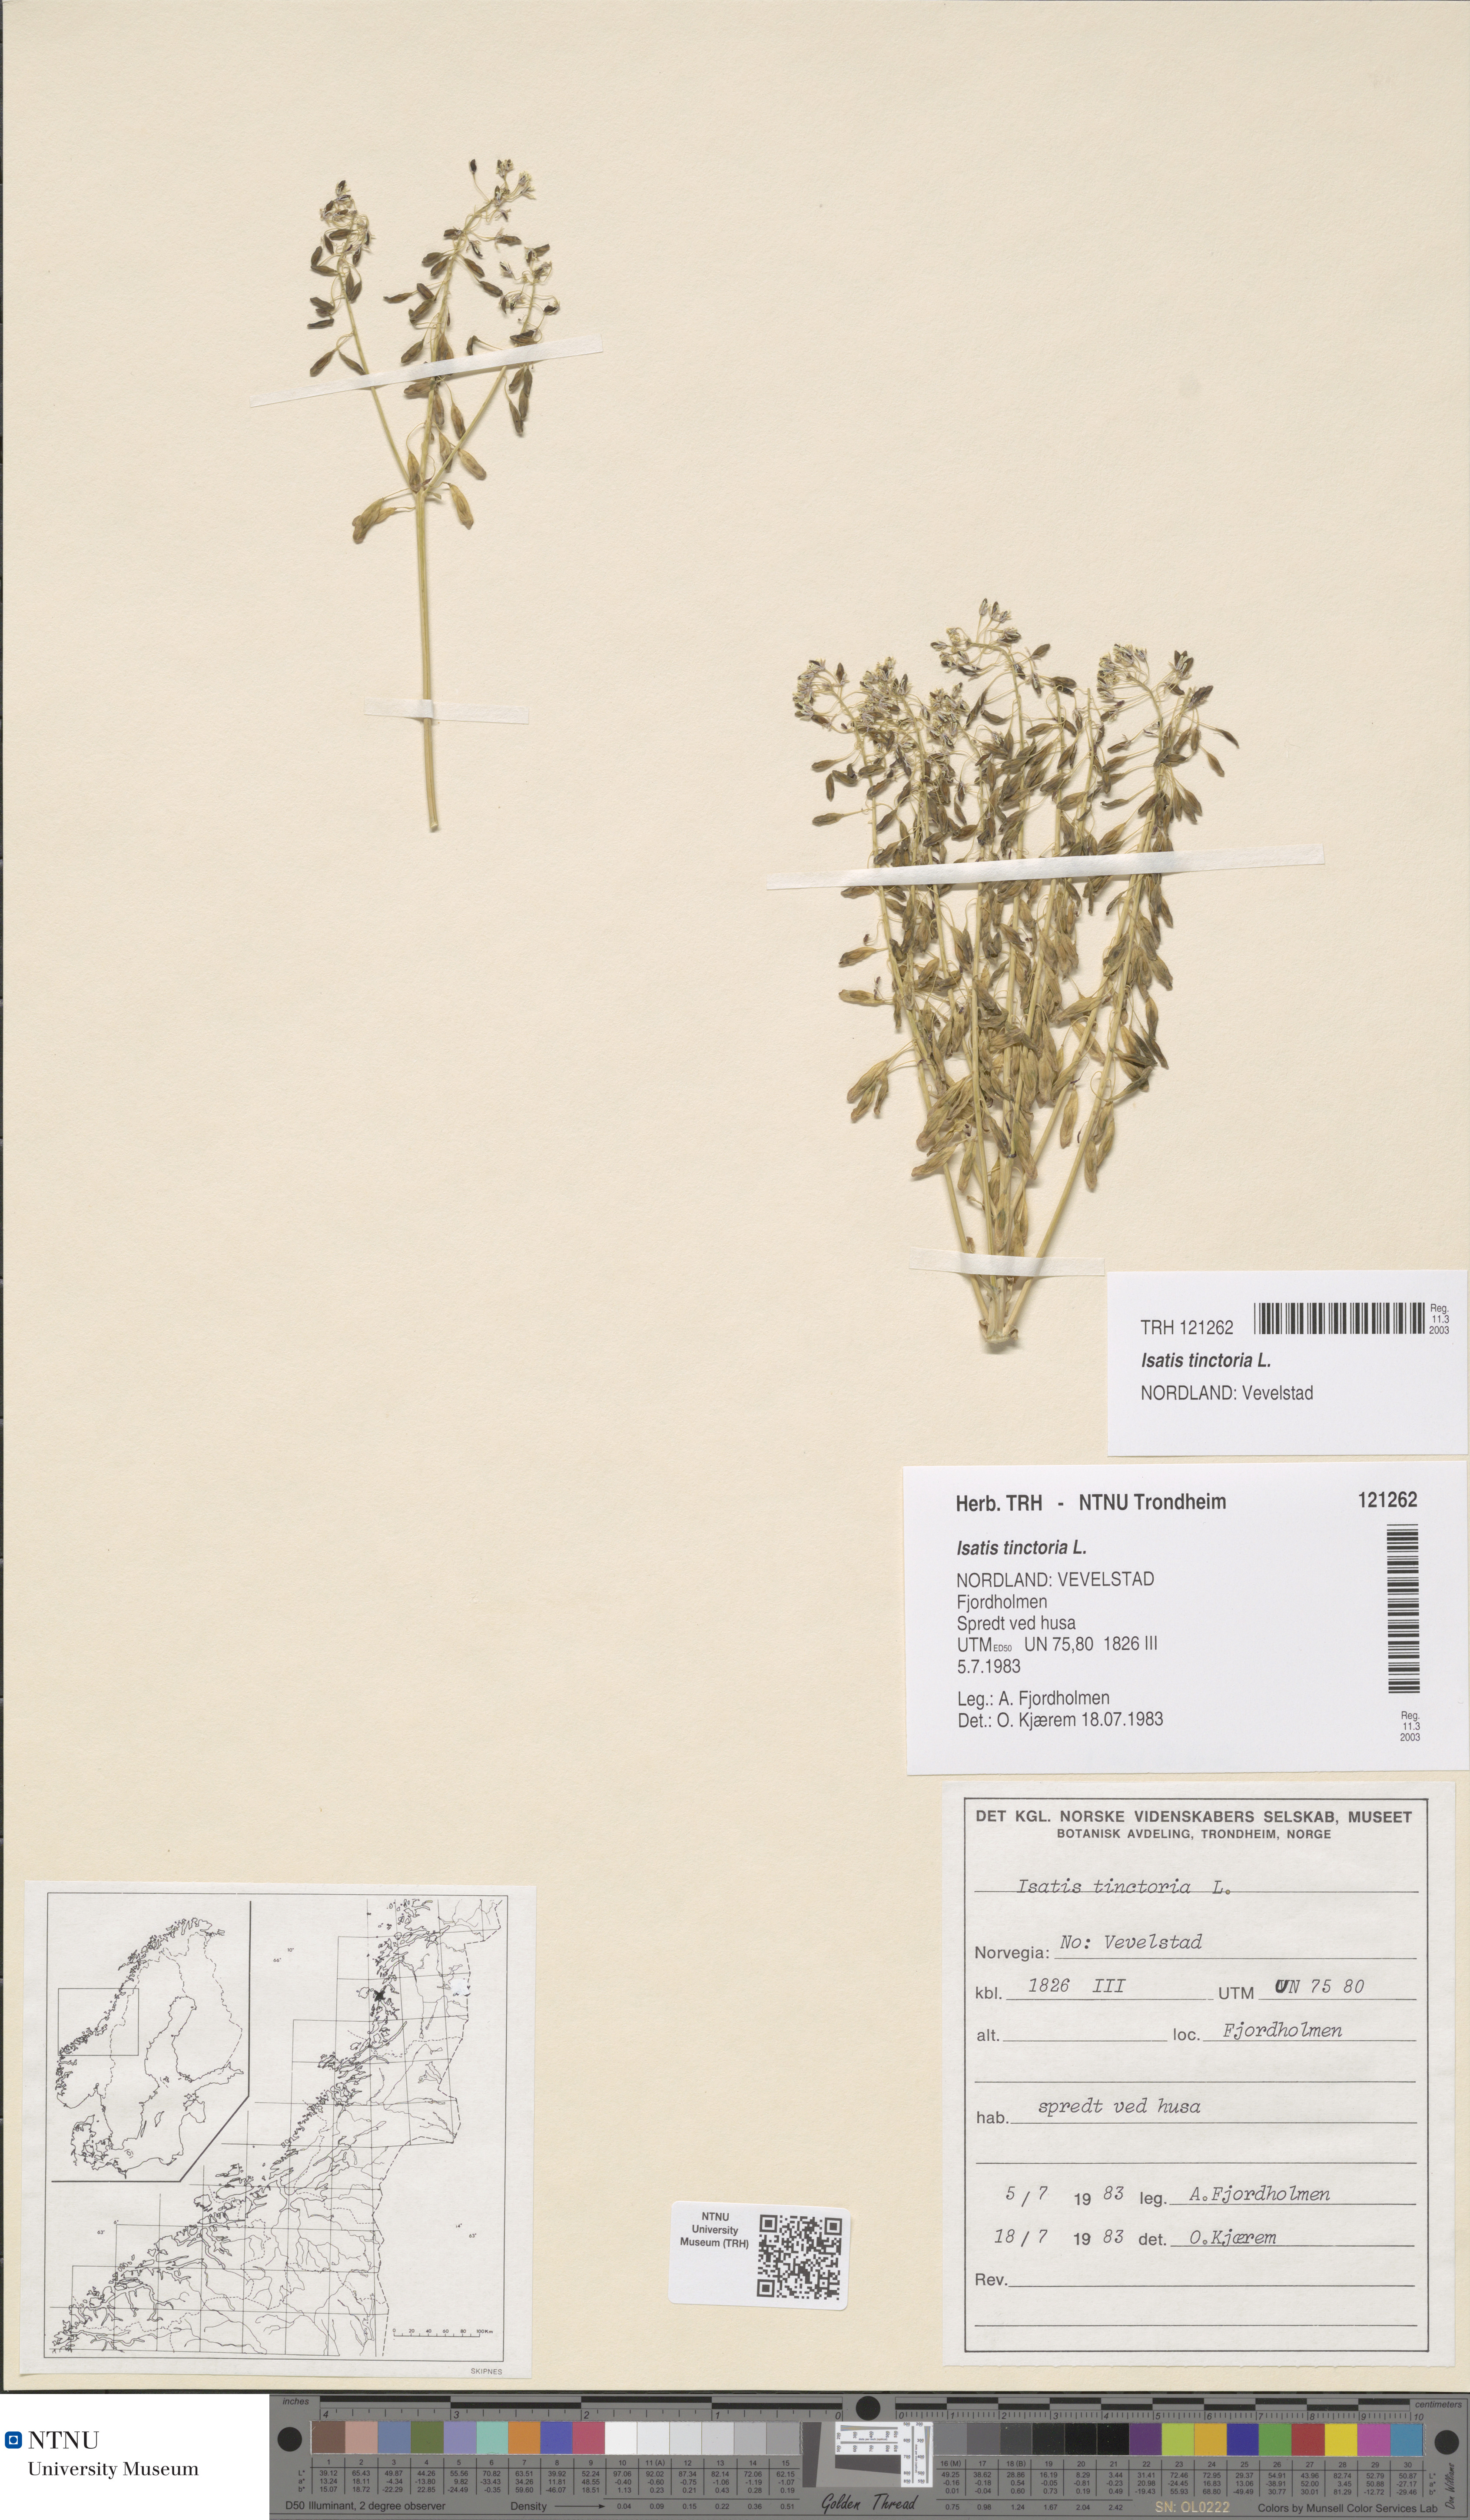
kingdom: Plantae
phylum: Tracheophyta
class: Magnoliopsida
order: Brassicales
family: Brassicaceae
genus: Isatis
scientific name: Isatis tinctoria
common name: Woad
